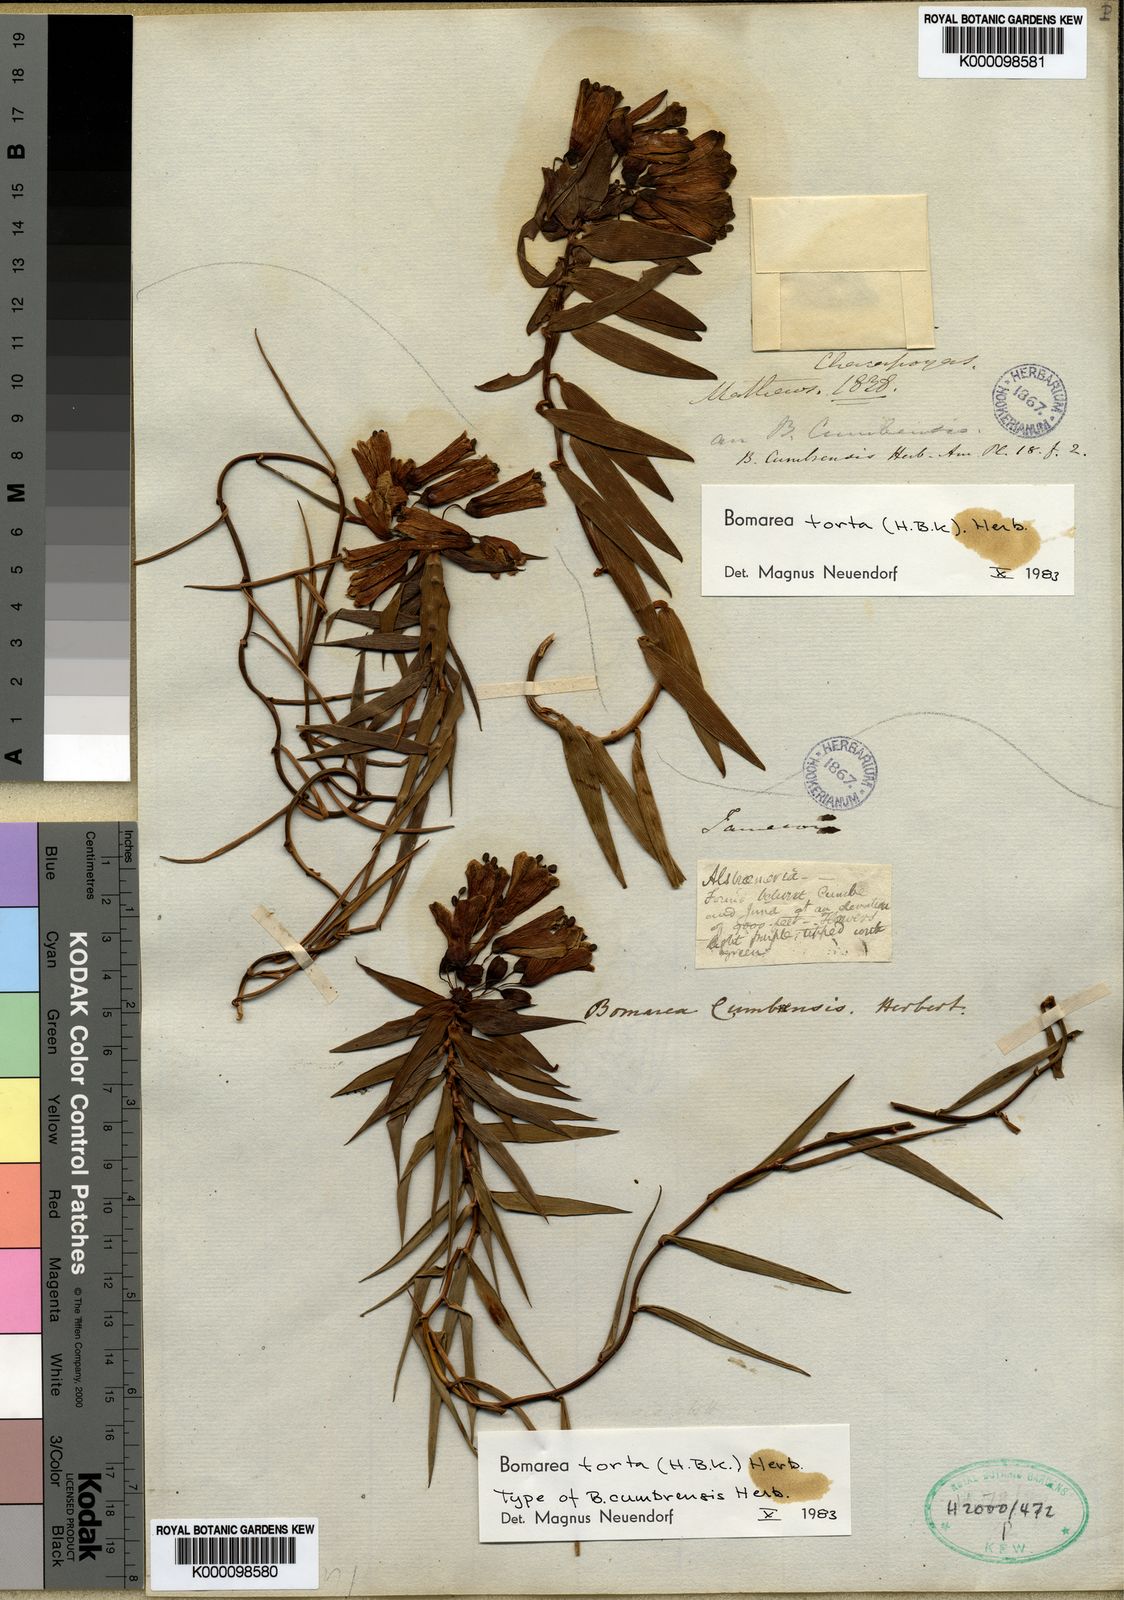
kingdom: Plantae
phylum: Tracheophyta
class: Liliopsida
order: Liliales
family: Alstroemeriaceae
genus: Bomarea
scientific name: Bomarea torta
